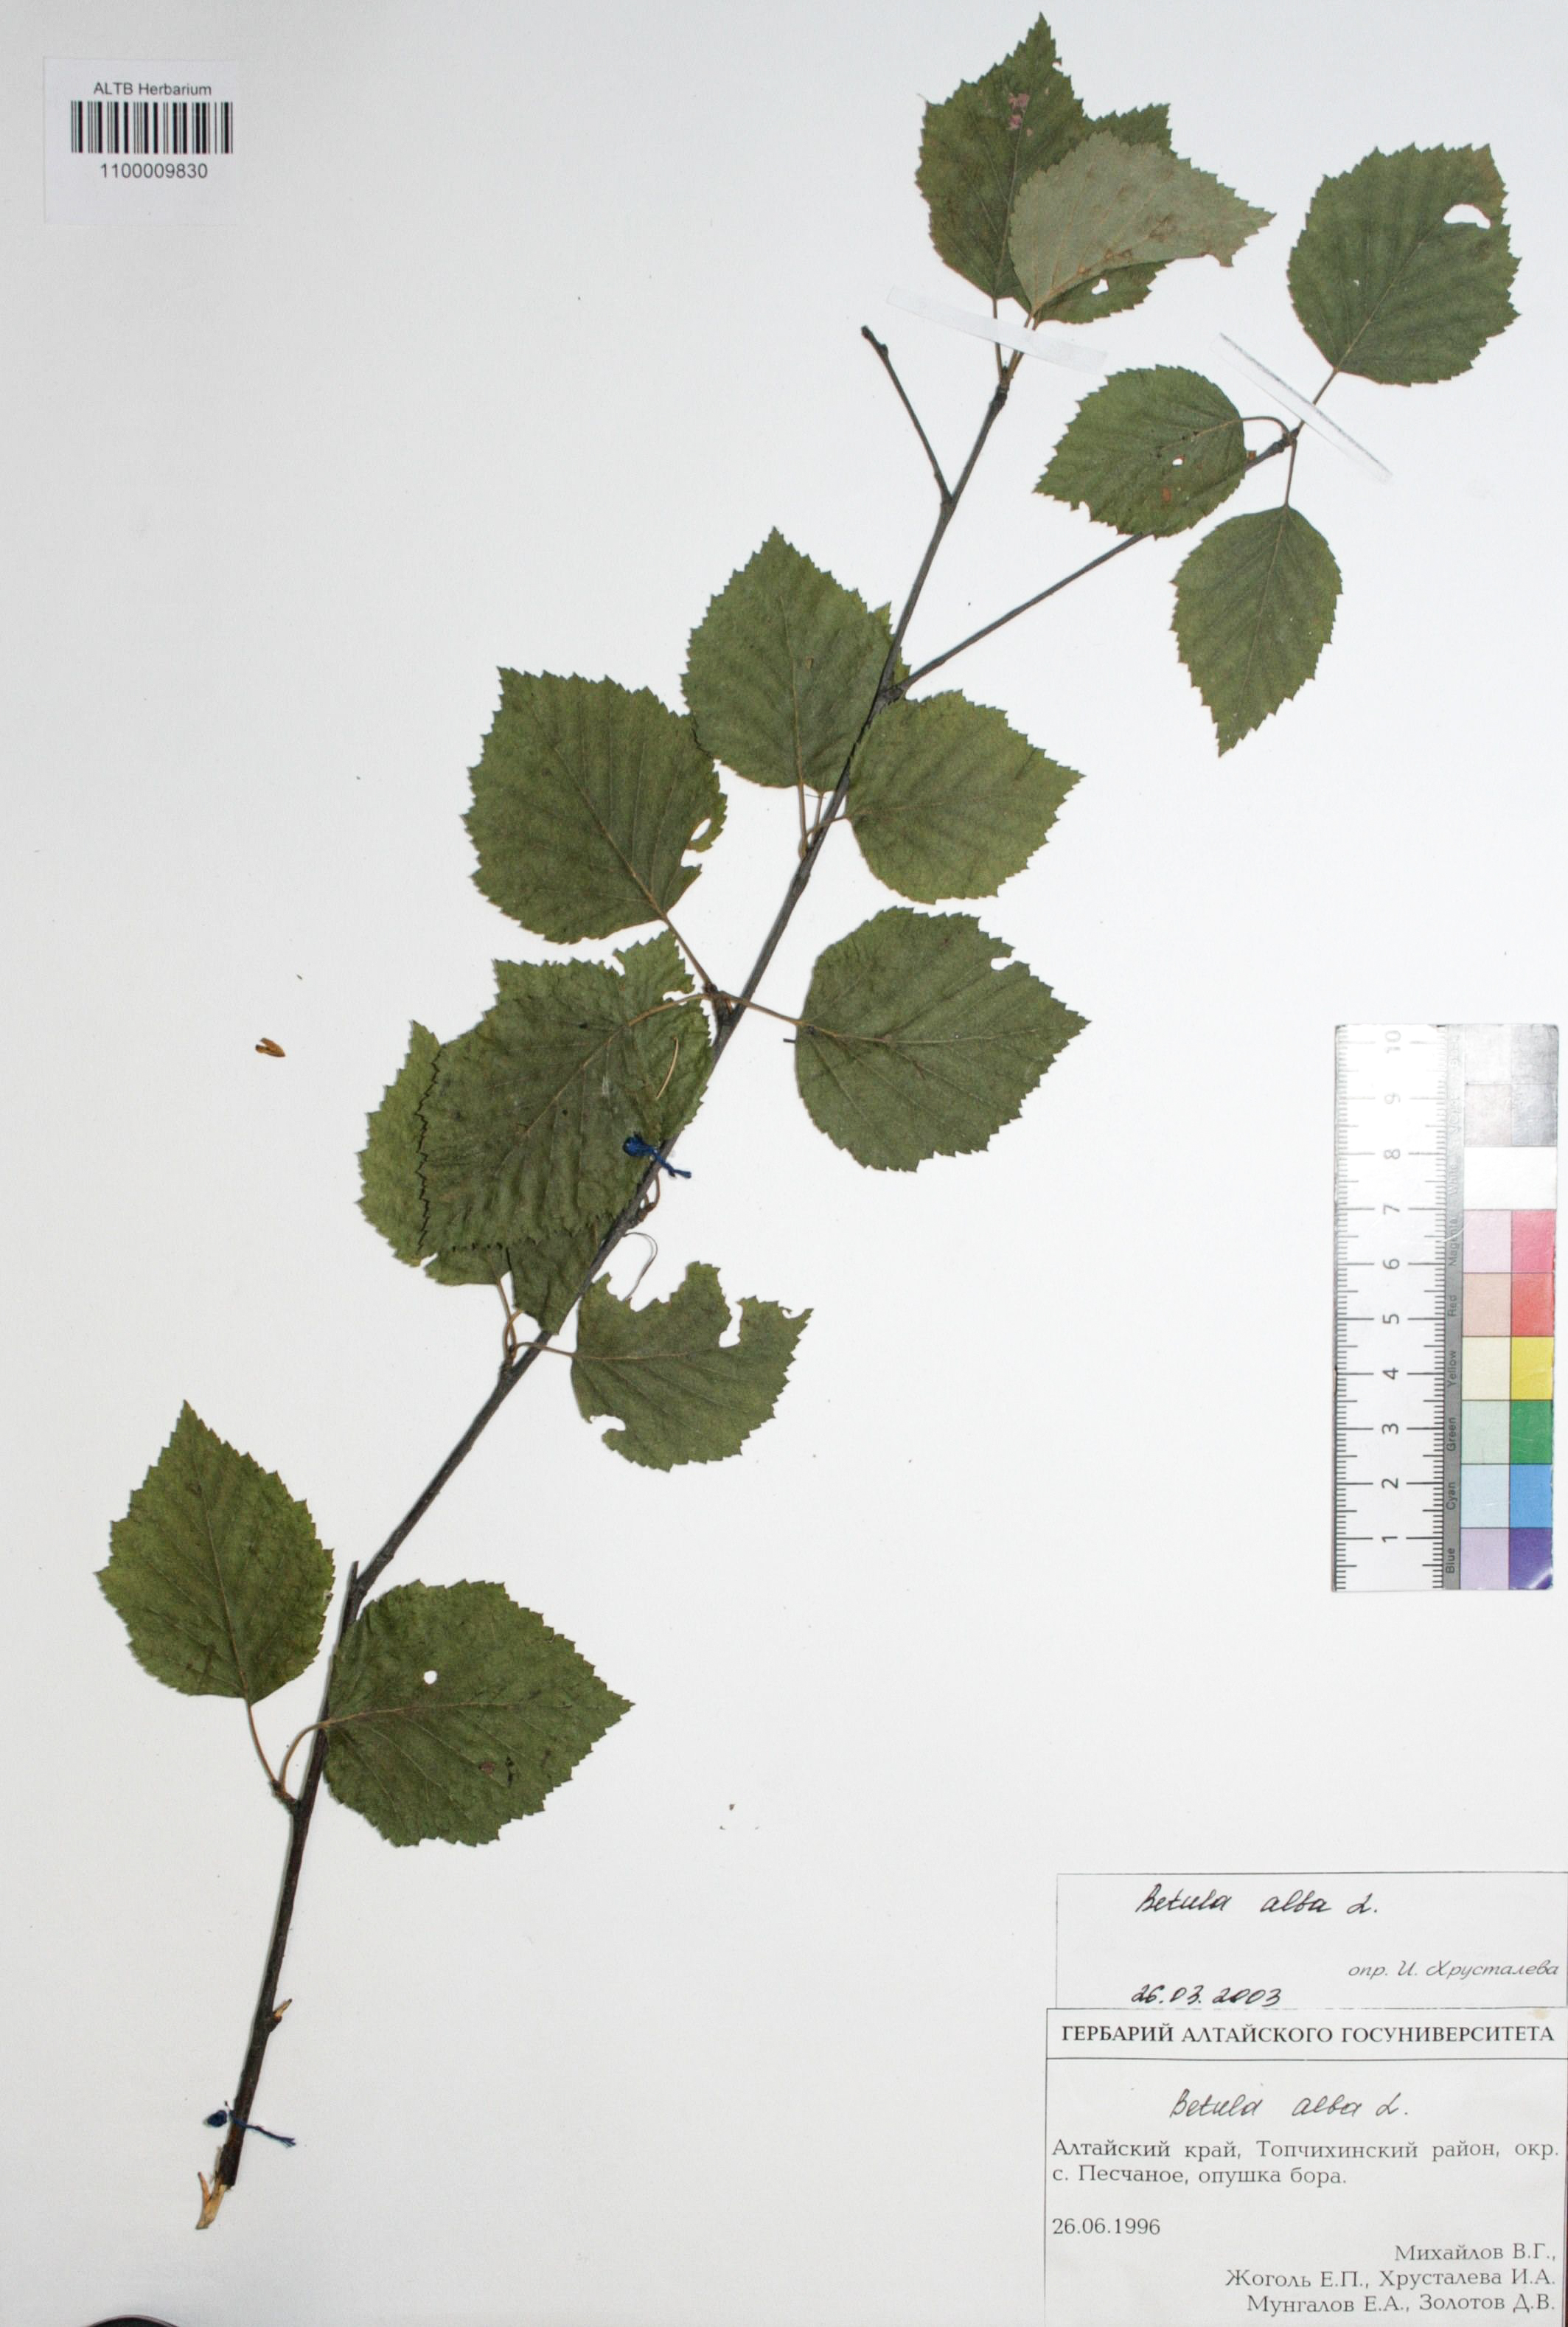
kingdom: Plantae
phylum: Tracheophyta
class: Magnoliopsida
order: Fagales
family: Betulaceae
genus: Betula
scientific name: Betula pubescens
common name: Downy birch
